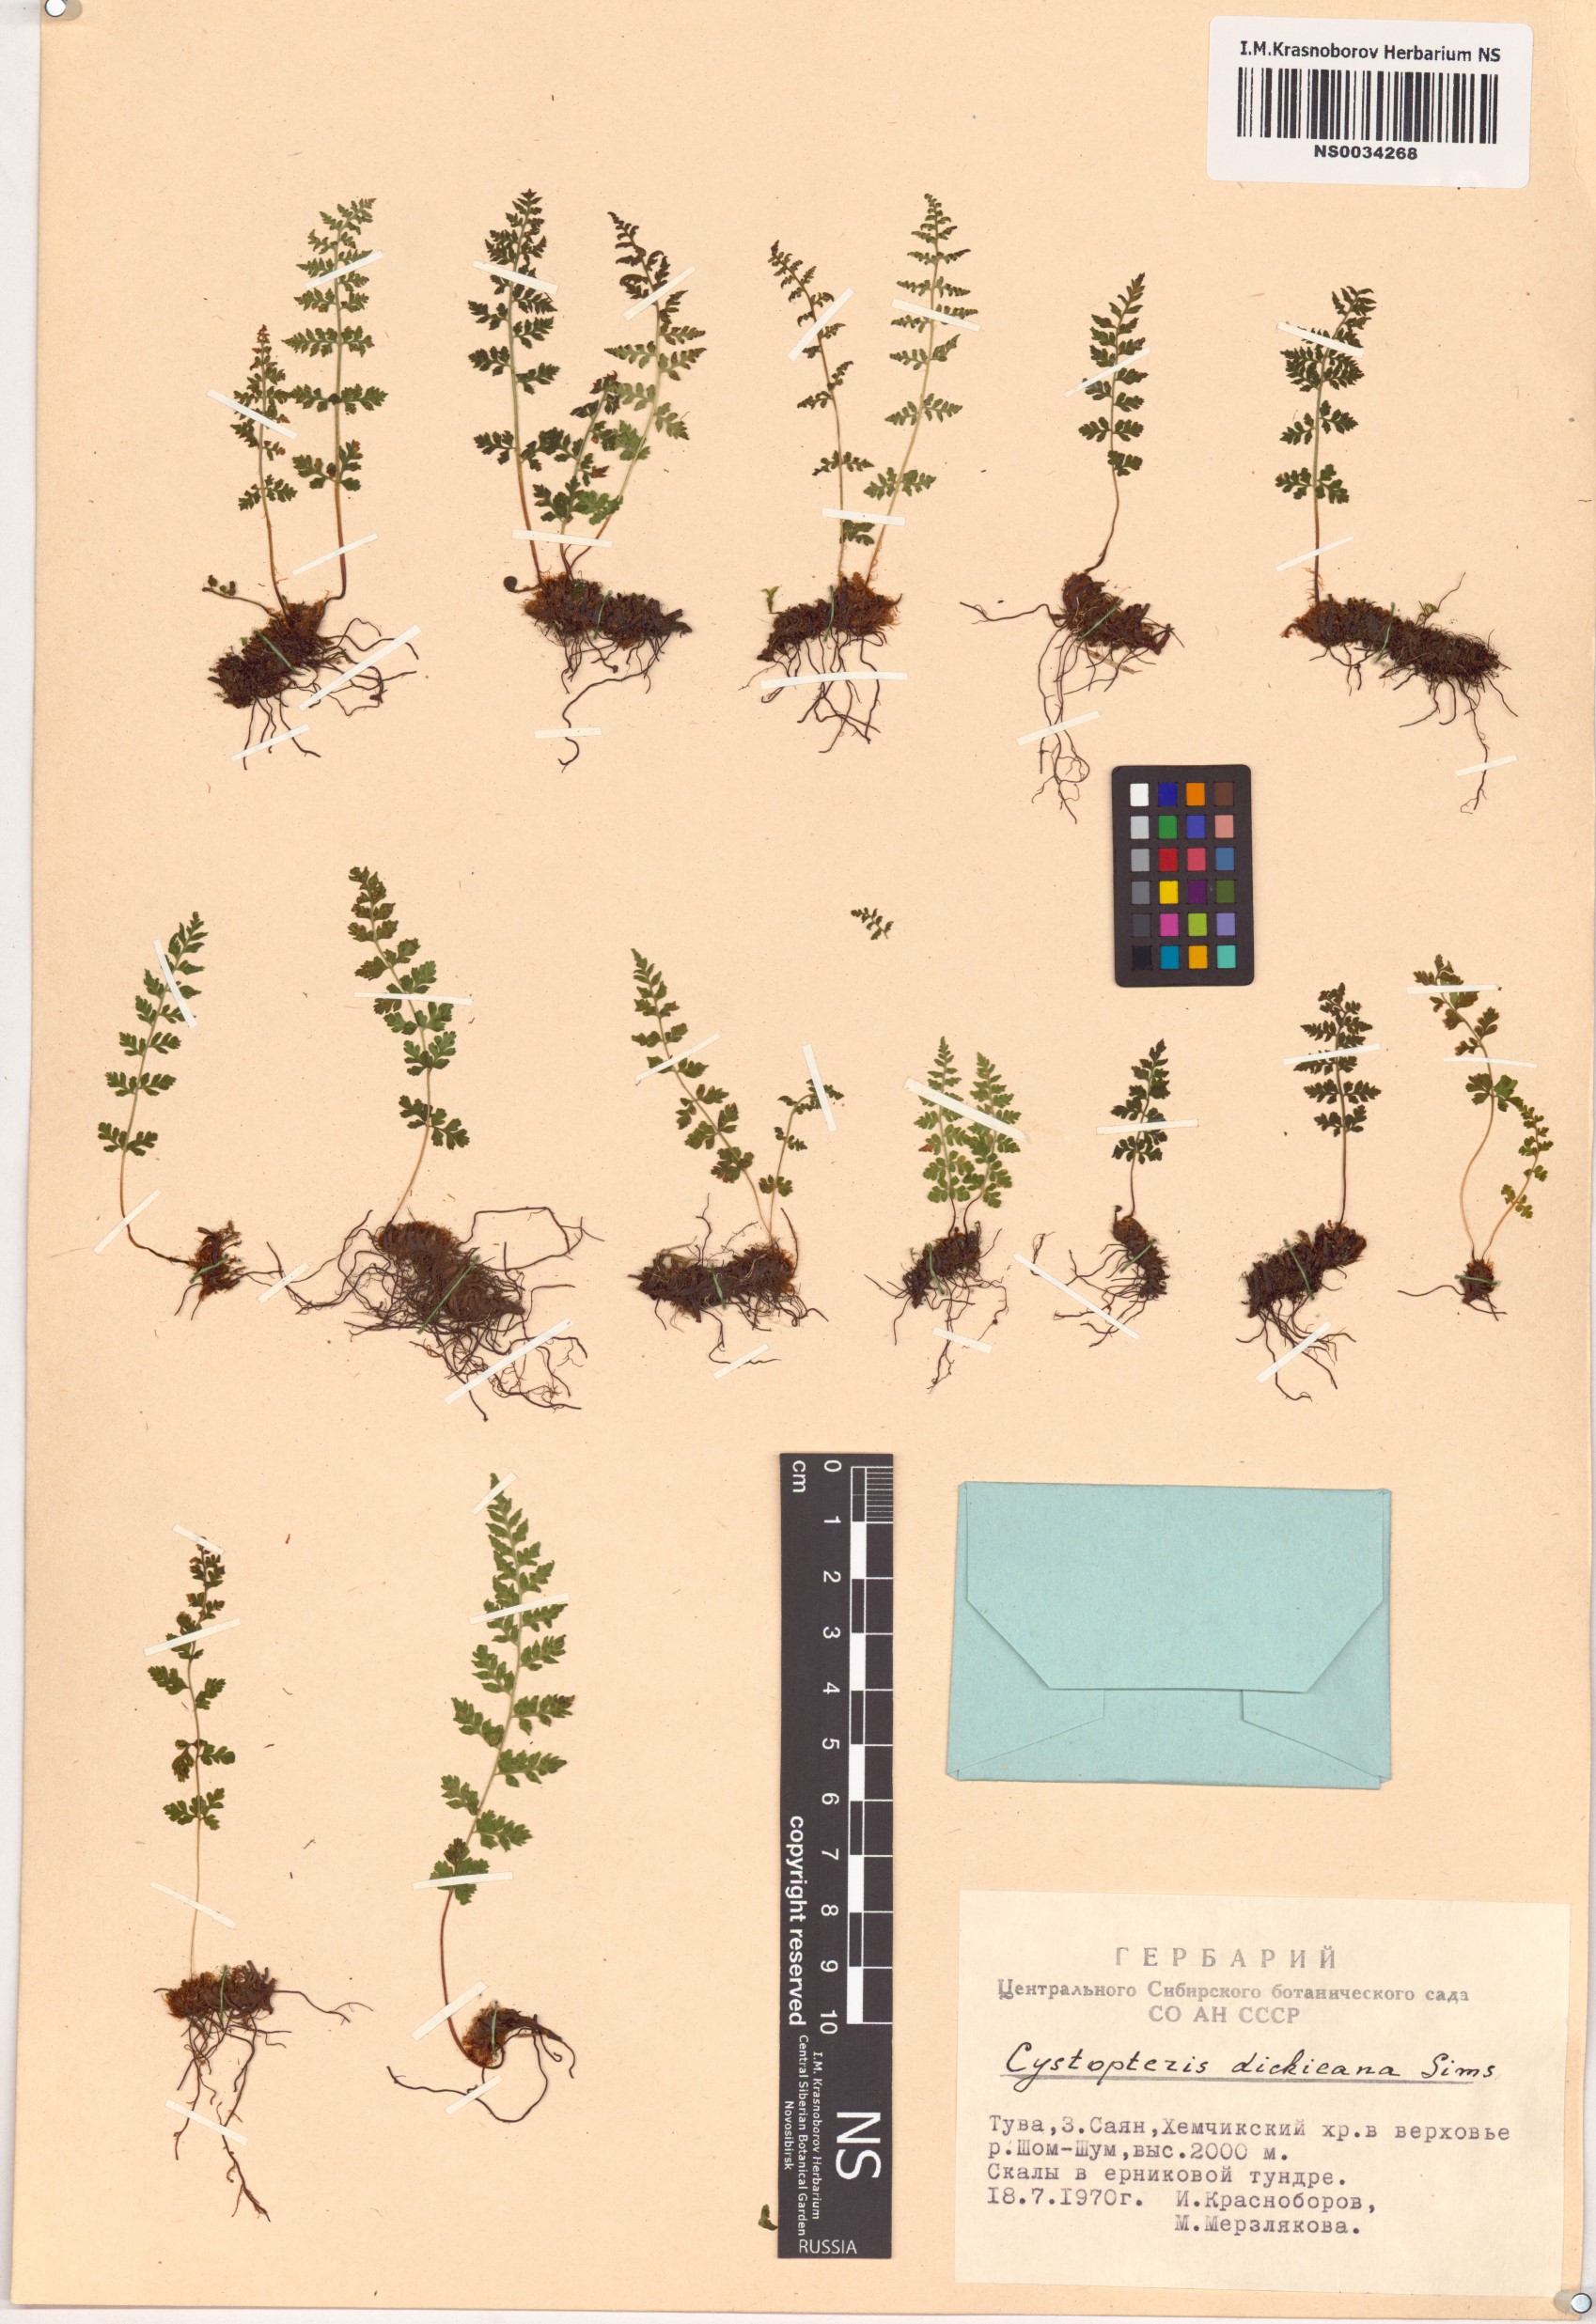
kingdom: Plantae
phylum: Tracheophyta
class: Polypodiopsida
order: Polypodiales
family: Cystopteridaceae
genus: Cystopteris
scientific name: Cystopteris dickieana
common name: Dickie's bladder-fern
